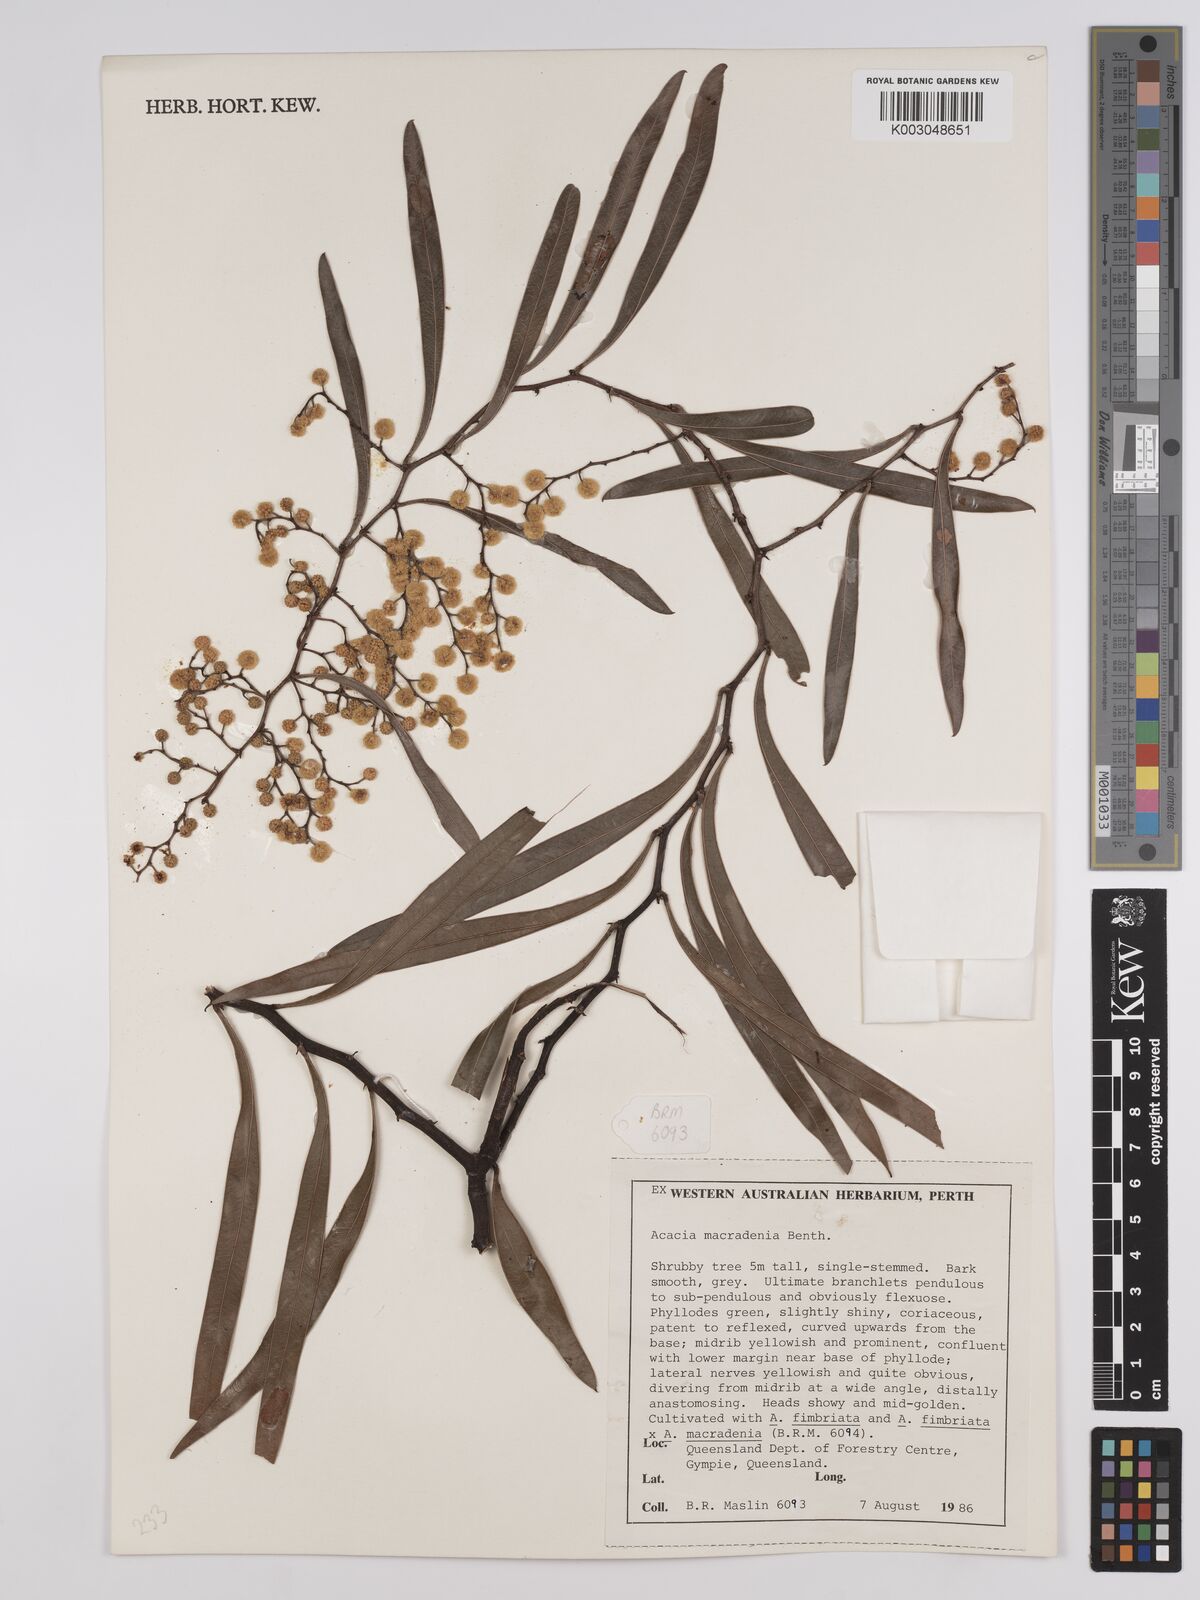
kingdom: Plantae
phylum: Tracheophyta
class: Magnoliopsida
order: Fabales
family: Fabaceae
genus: Acacia
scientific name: Acacia macradenia
